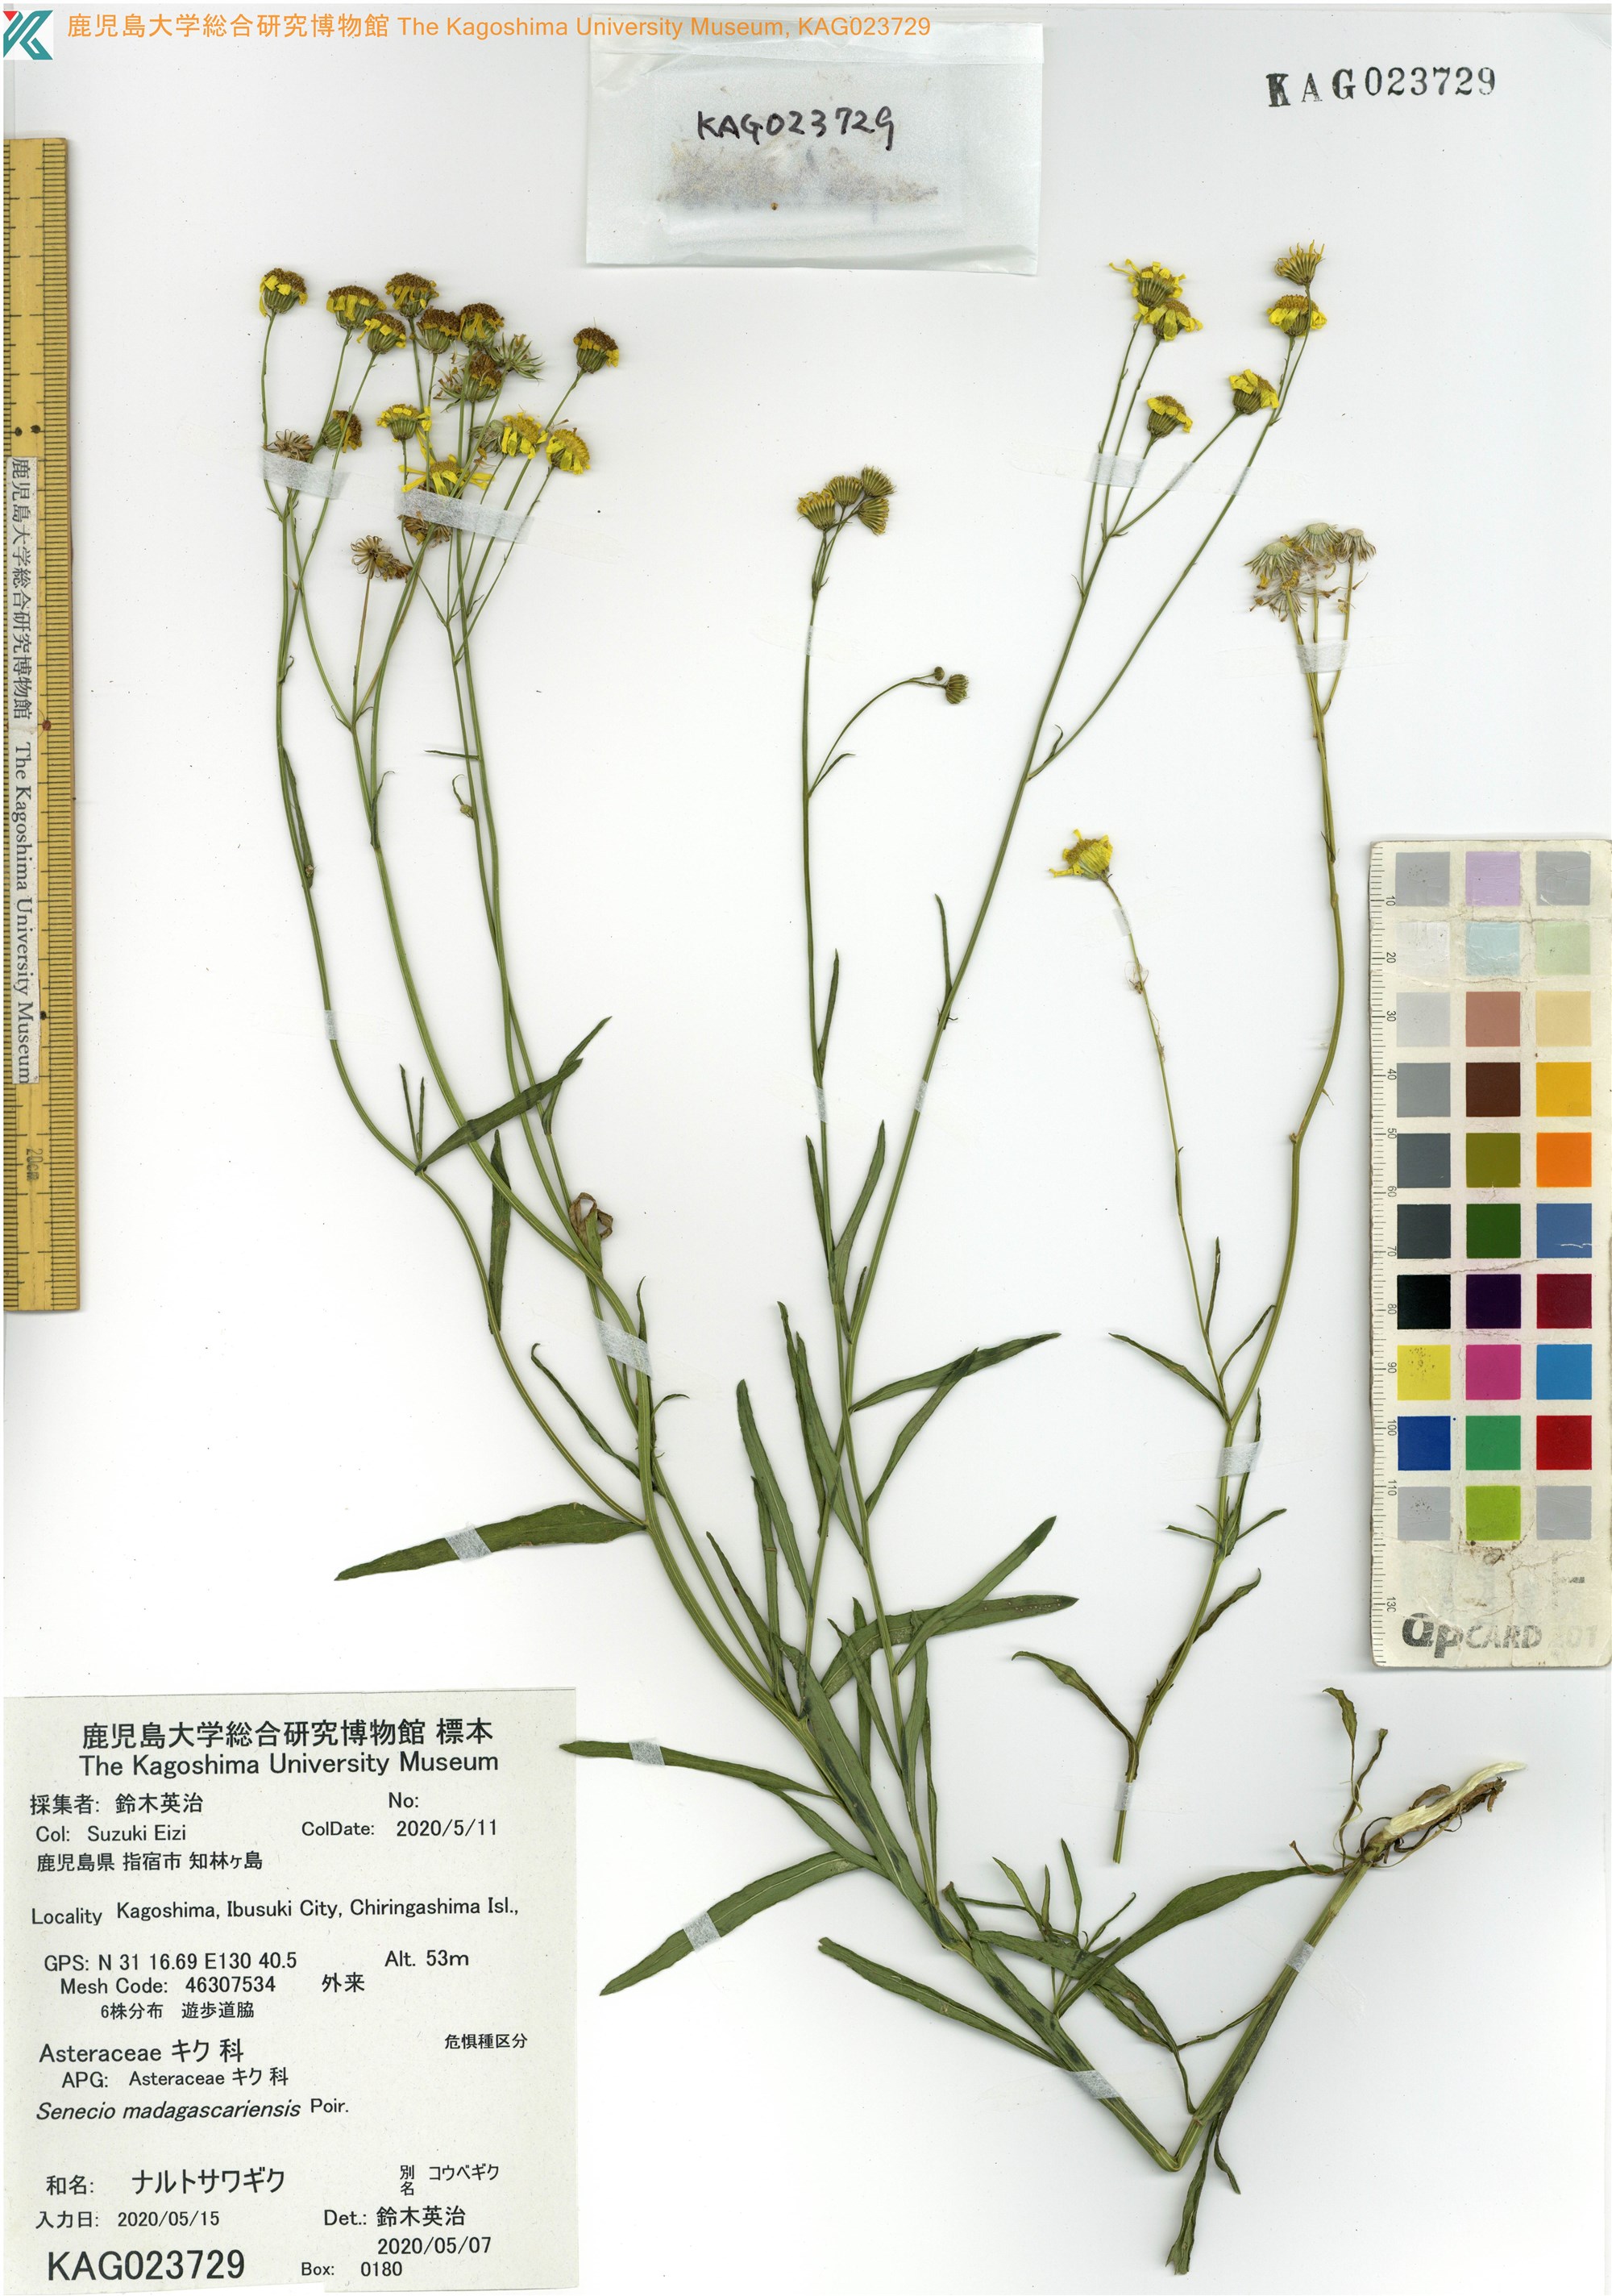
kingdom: Plantae
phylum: Tracheophyta
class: Magnoliopsida
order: Asterales
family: Asteraceae
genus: Senecio
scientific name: Senecio madagascariensis
